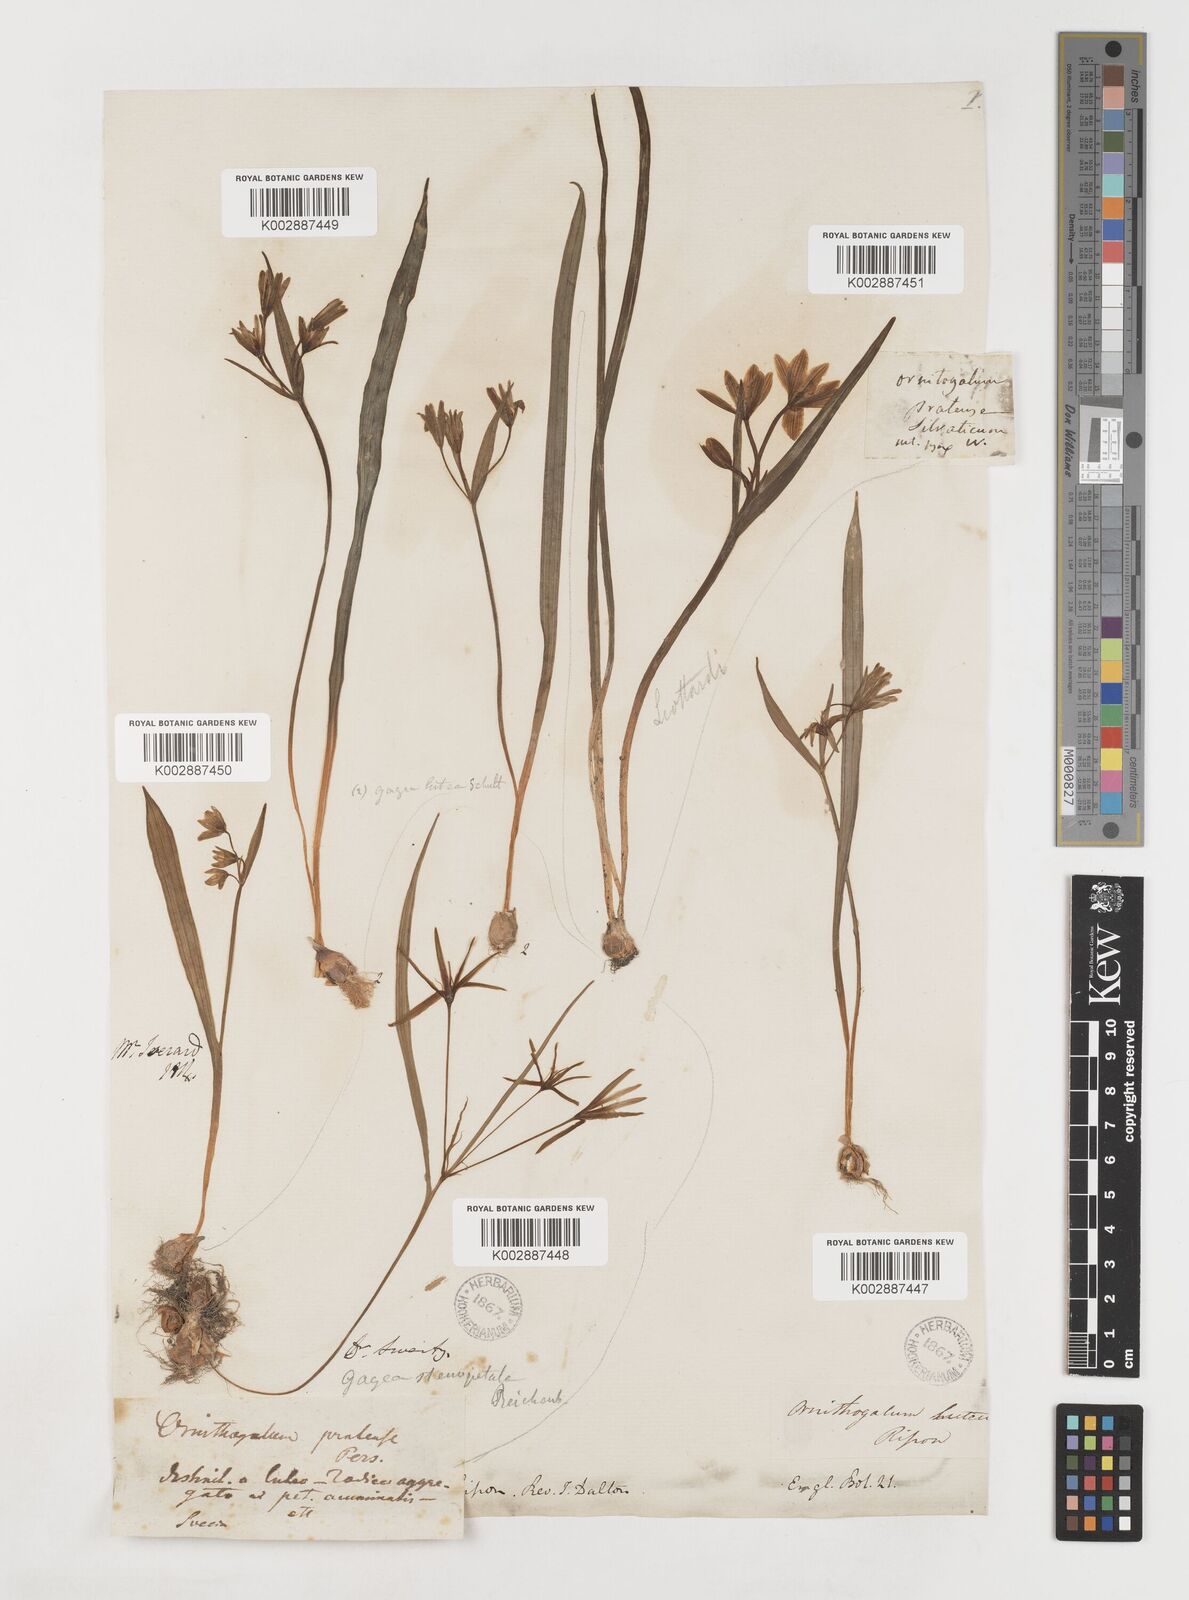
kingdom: Plantae
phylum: Tracheophyta
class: Liliopsida
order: Liliales
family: Liliaceae
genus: Gagea
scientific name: Gagea lutea
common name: Yellow star-of-bethlehem
